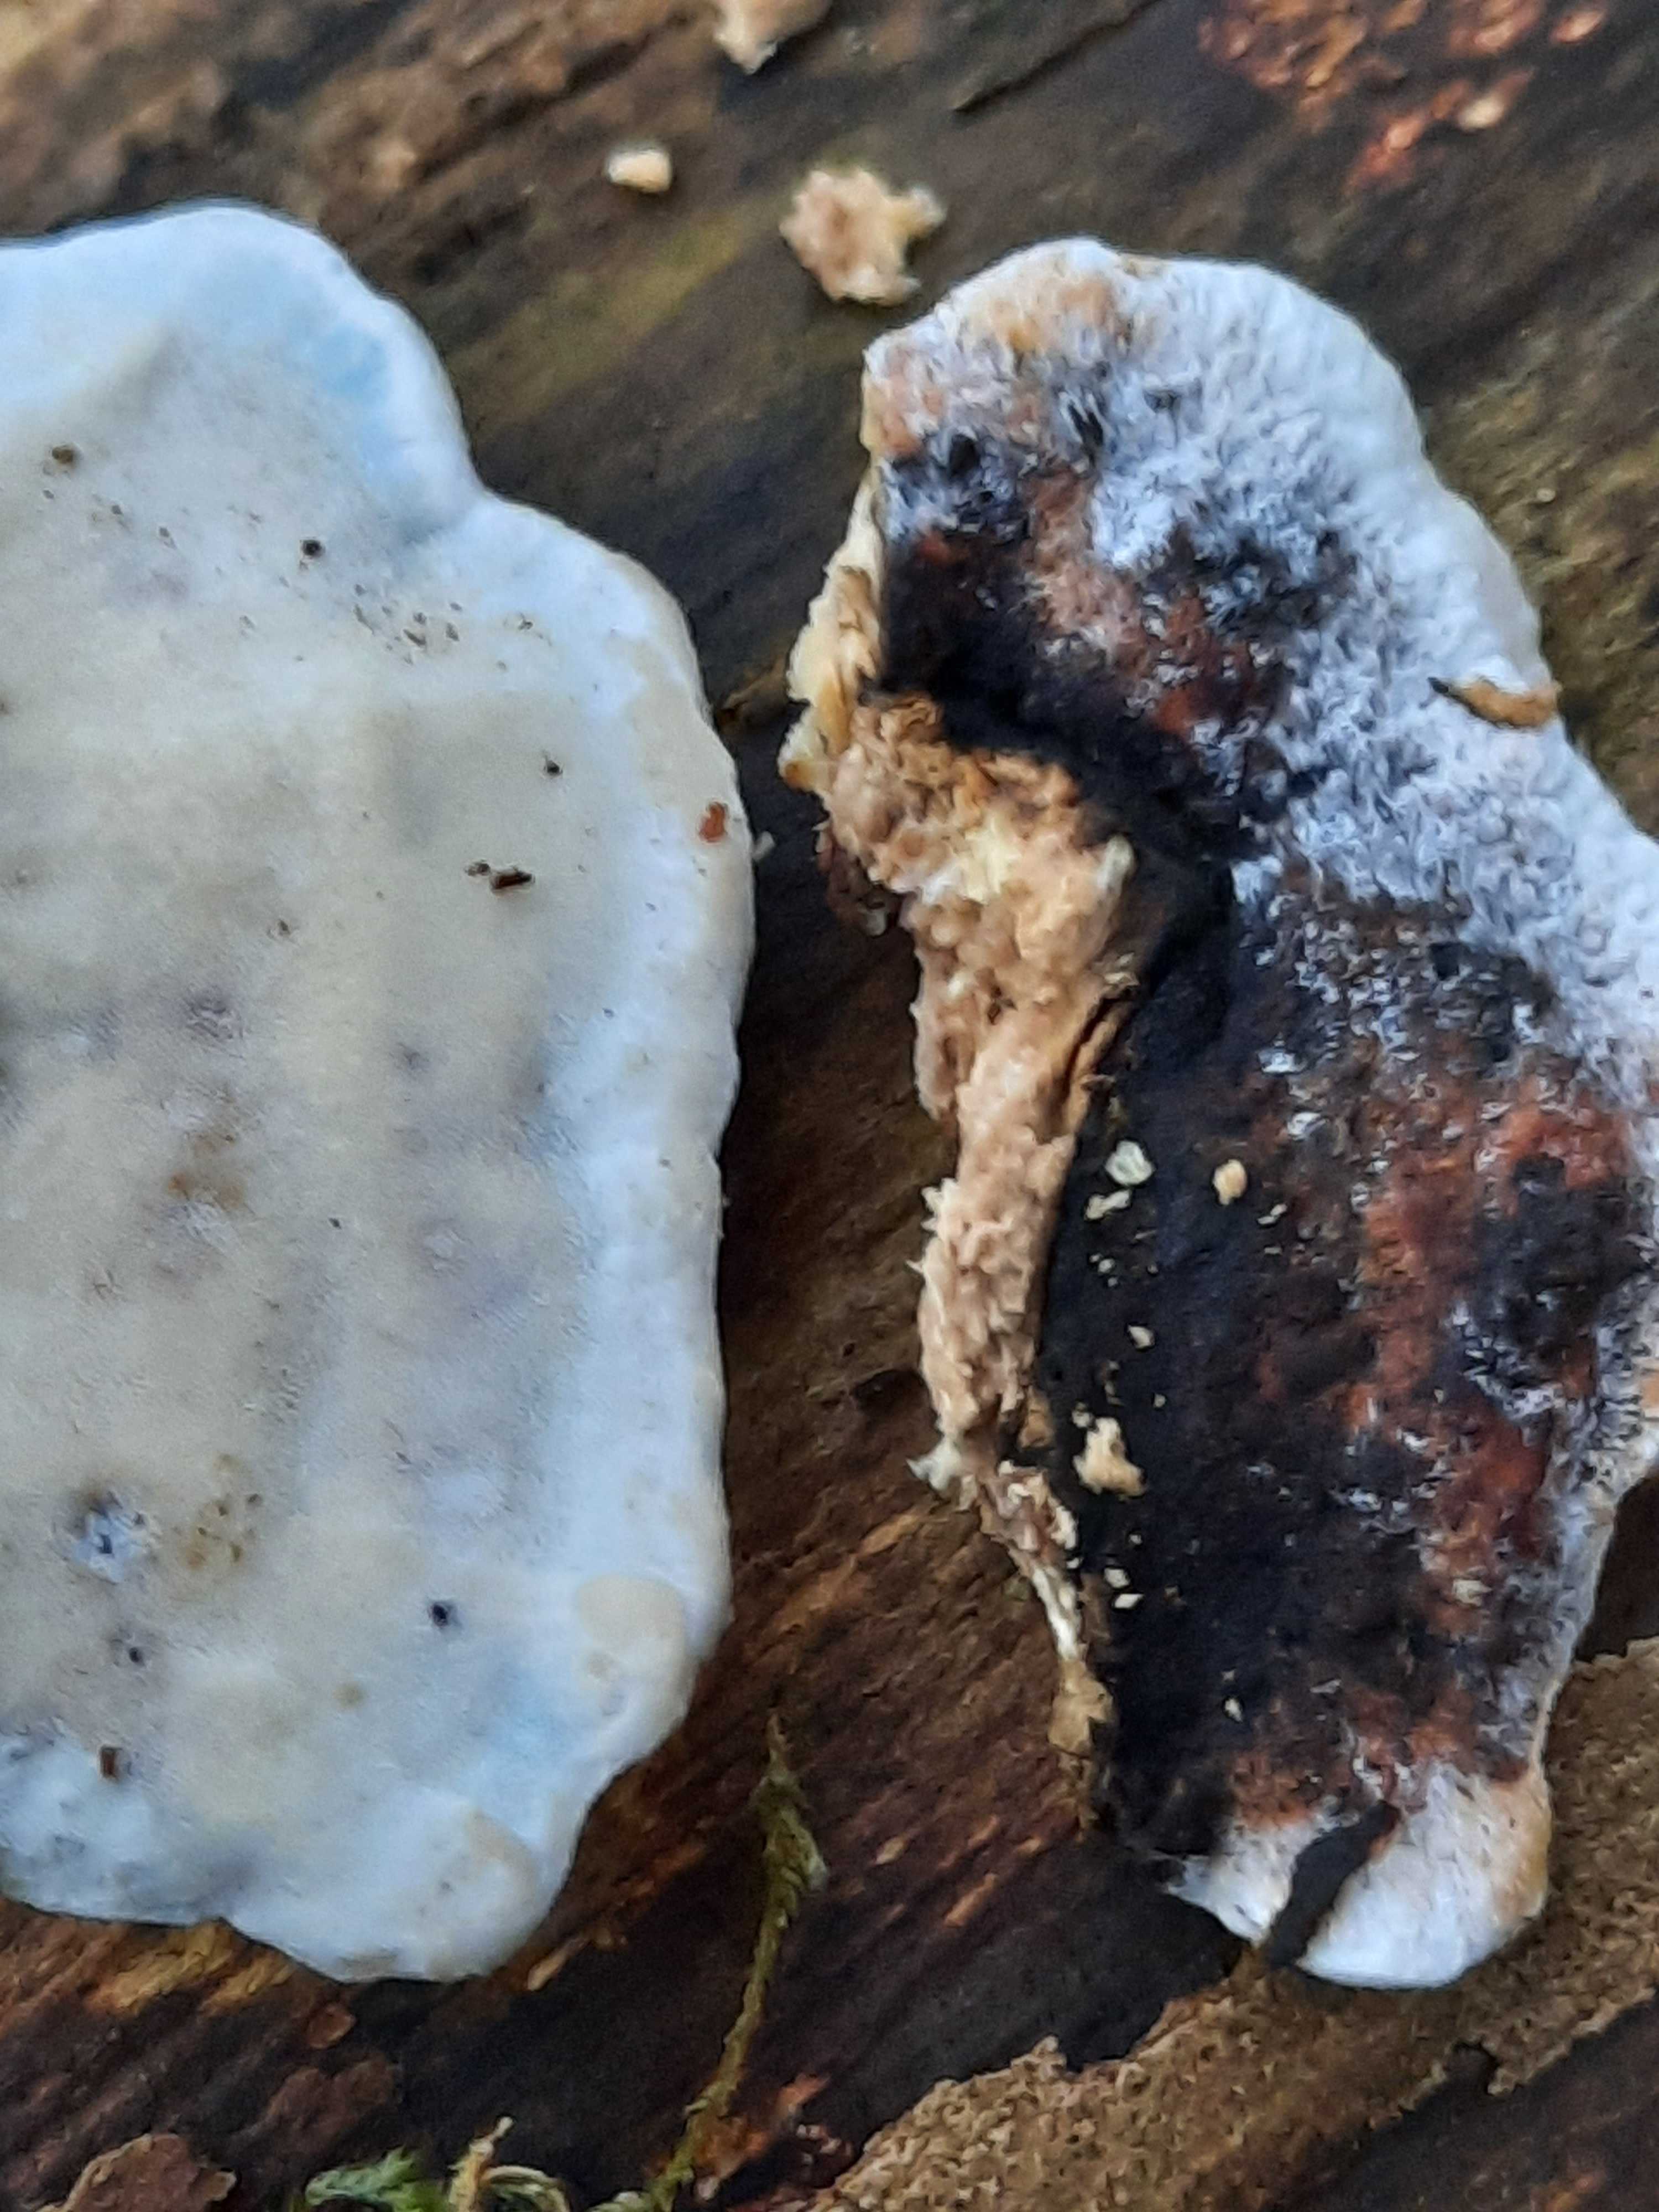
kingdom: Fungi
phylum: Basidiomycota
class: Agaricomycetes
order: Polyporales
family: Incrustoporiaceae
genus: Skeletocutis
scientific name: Skeletocutis nemoralis
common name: stor krystalporesvamp
